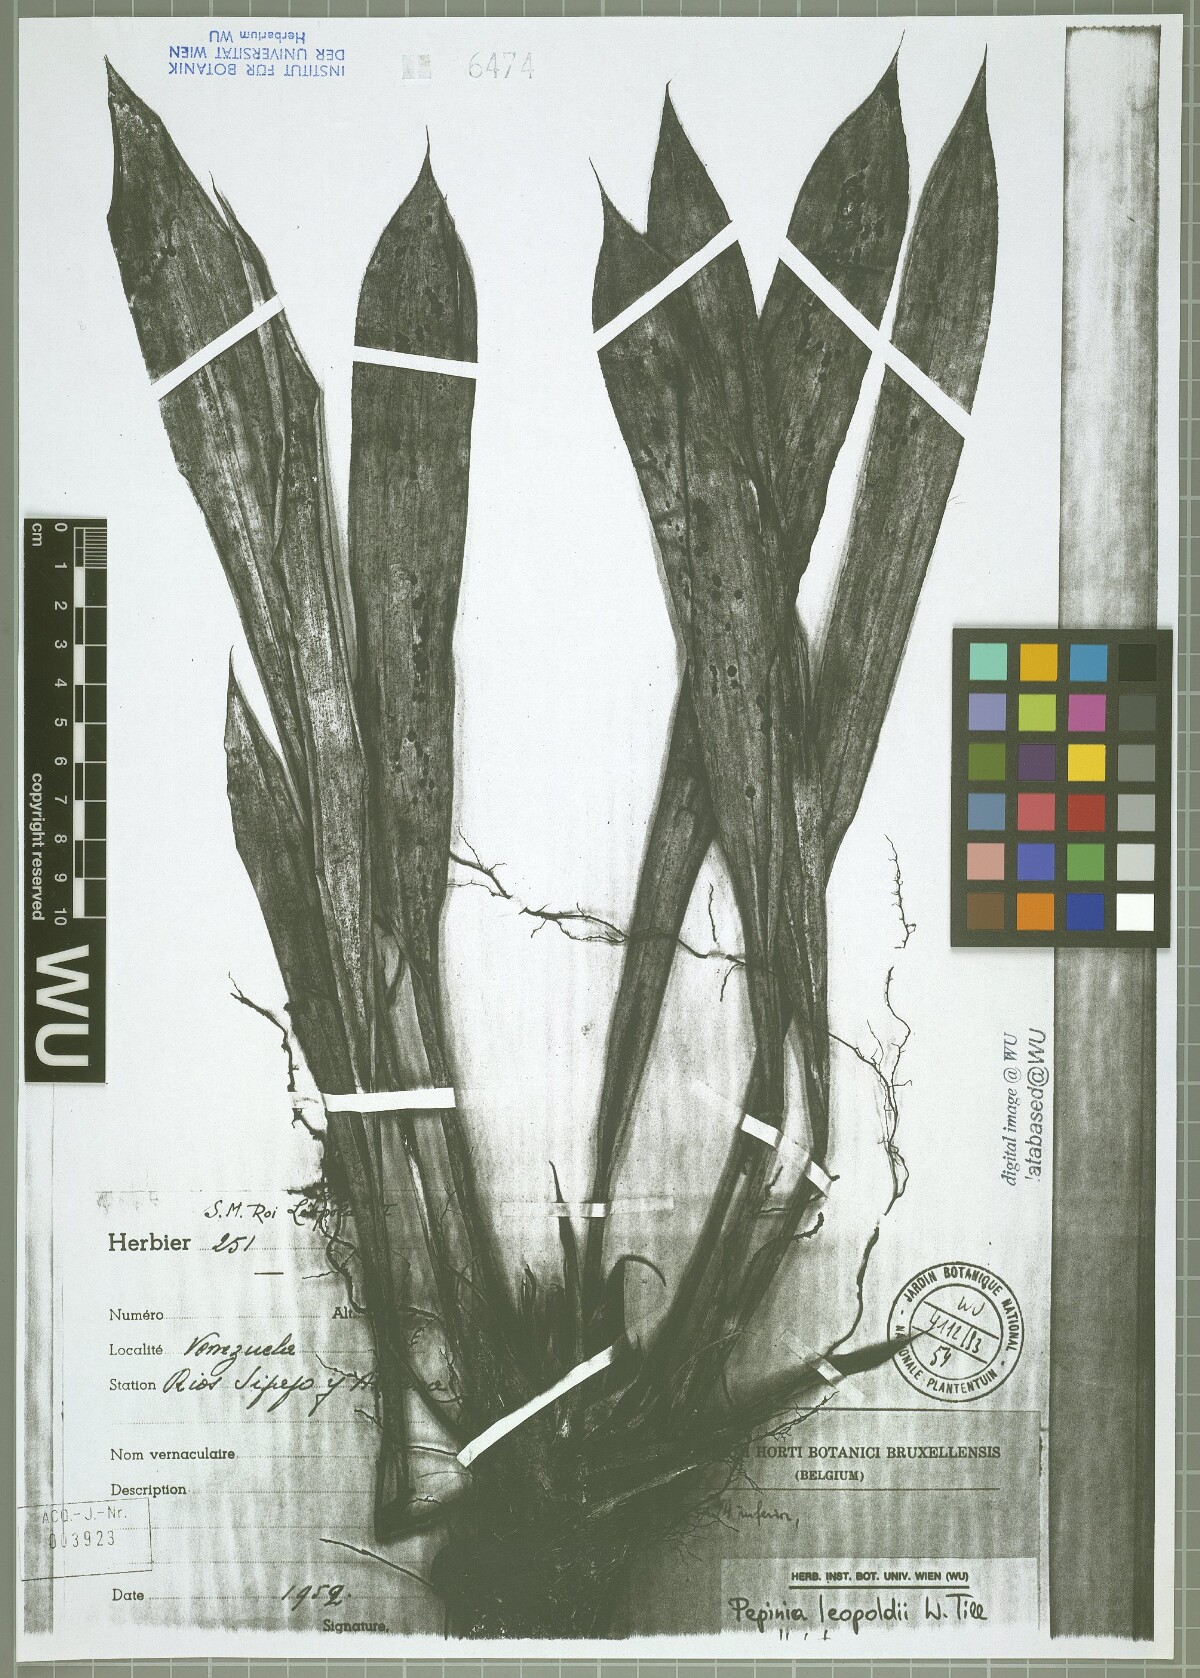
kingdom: Plantae
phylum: Tracheophyta
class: Liliopsida
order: Poales
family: Bromeliaceae
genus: Pitcairnia
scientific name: Pitcairnia leopoldii
